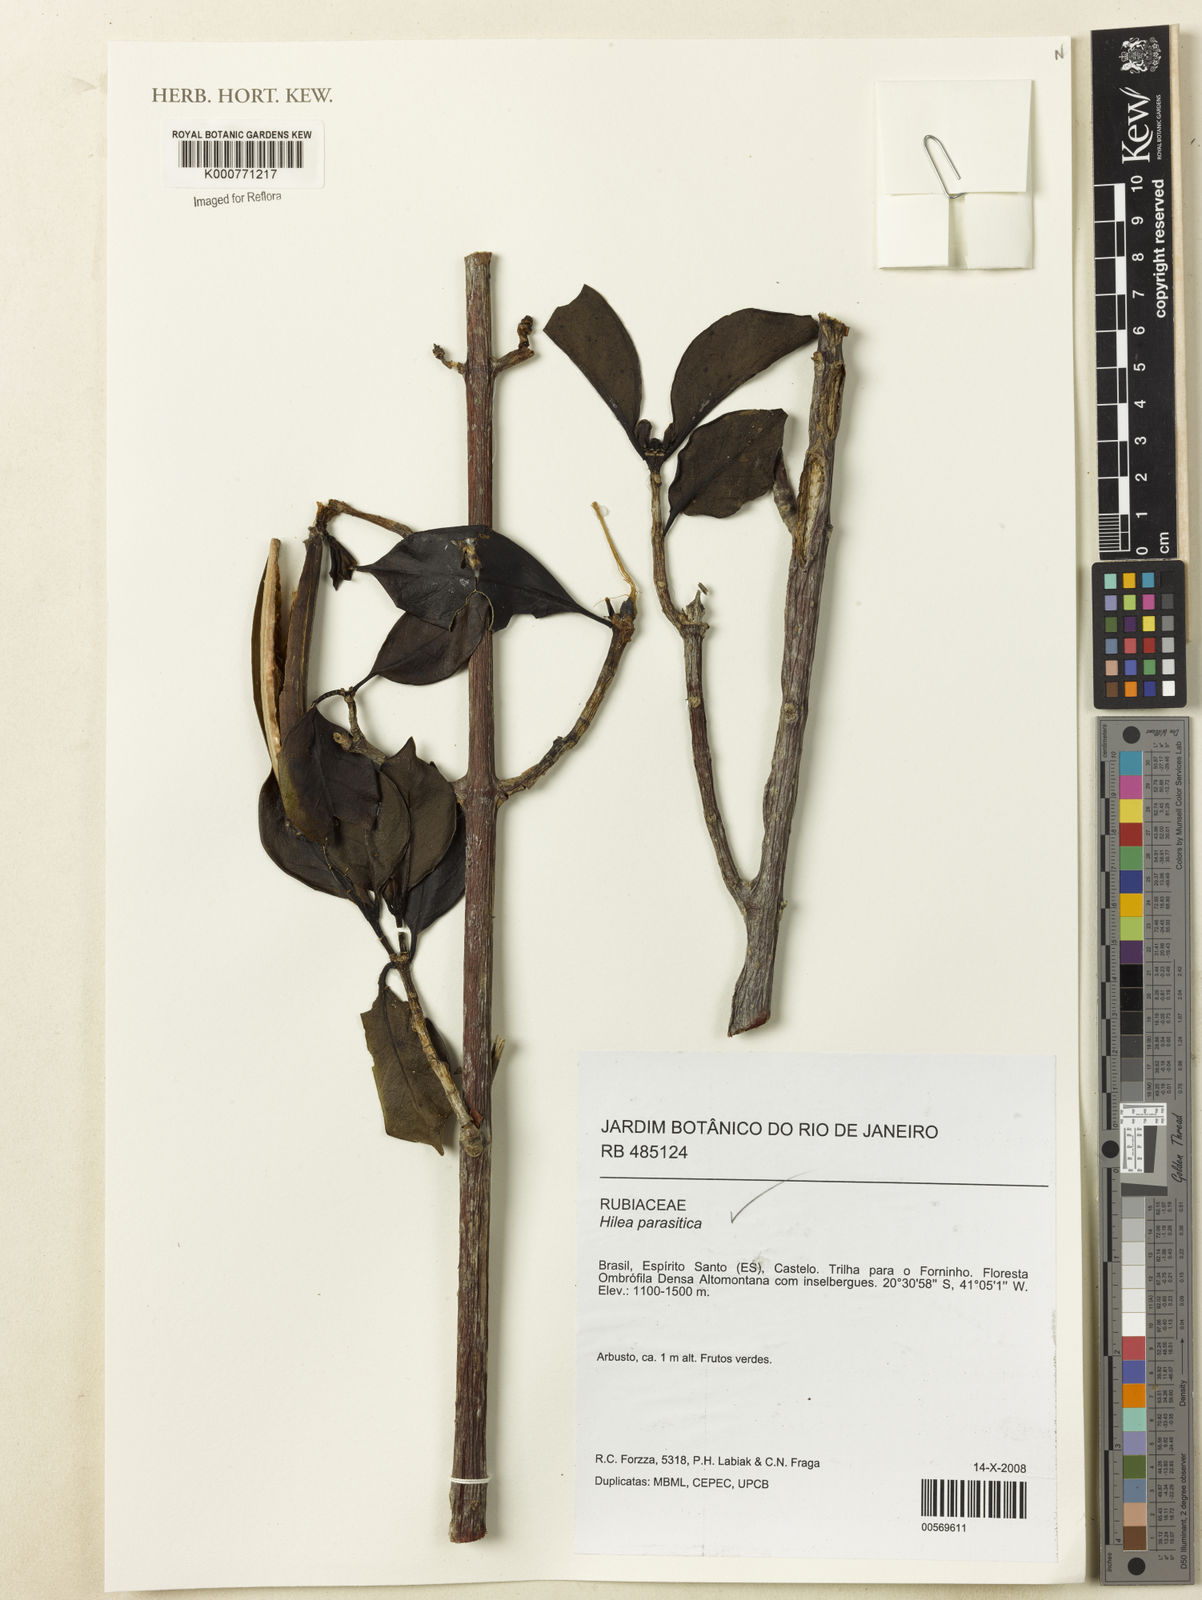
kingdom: Plantae
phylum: Tracheophyta
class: Magnoliopsida
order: Gentianales
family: Rubiaceae
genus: Hillia
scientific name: Hillia parasitica
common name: Morning star
